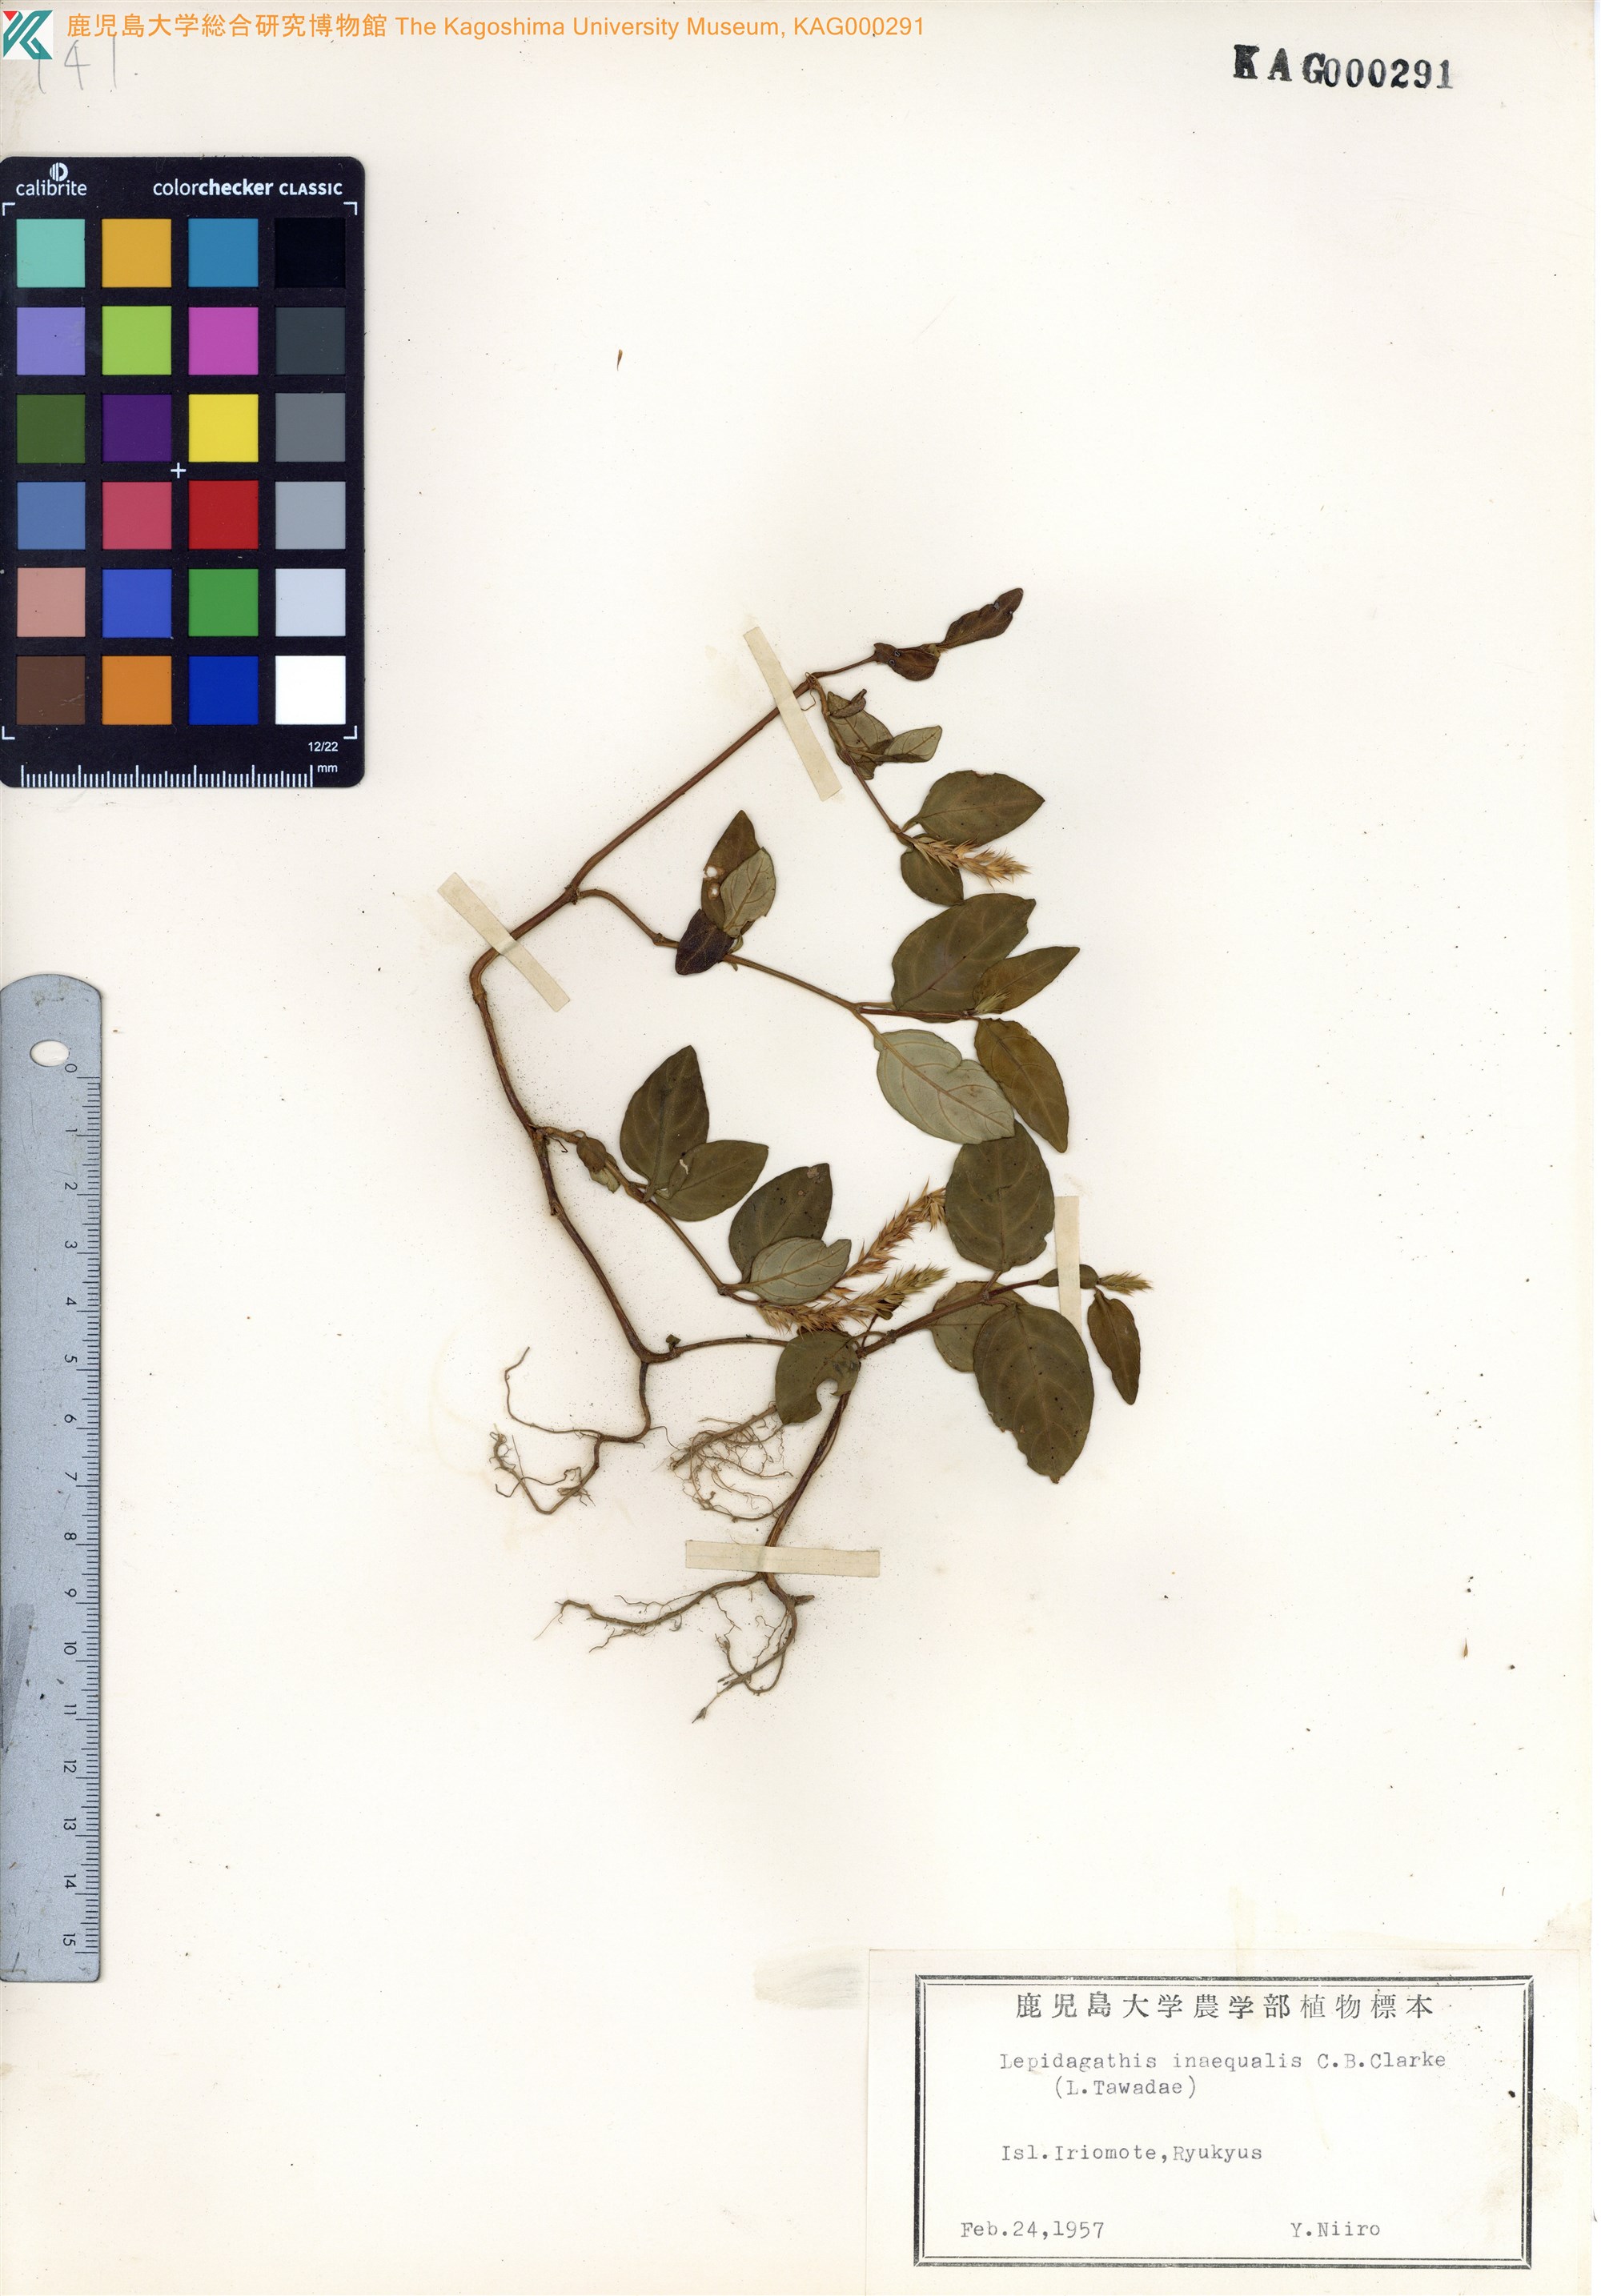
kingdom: Plantae
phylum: Tracheophyta
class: Magnoliopsida
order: Lamiales
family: Acanthaceae
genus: Lepidagathis
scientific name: Lepidagathis inaequalis
